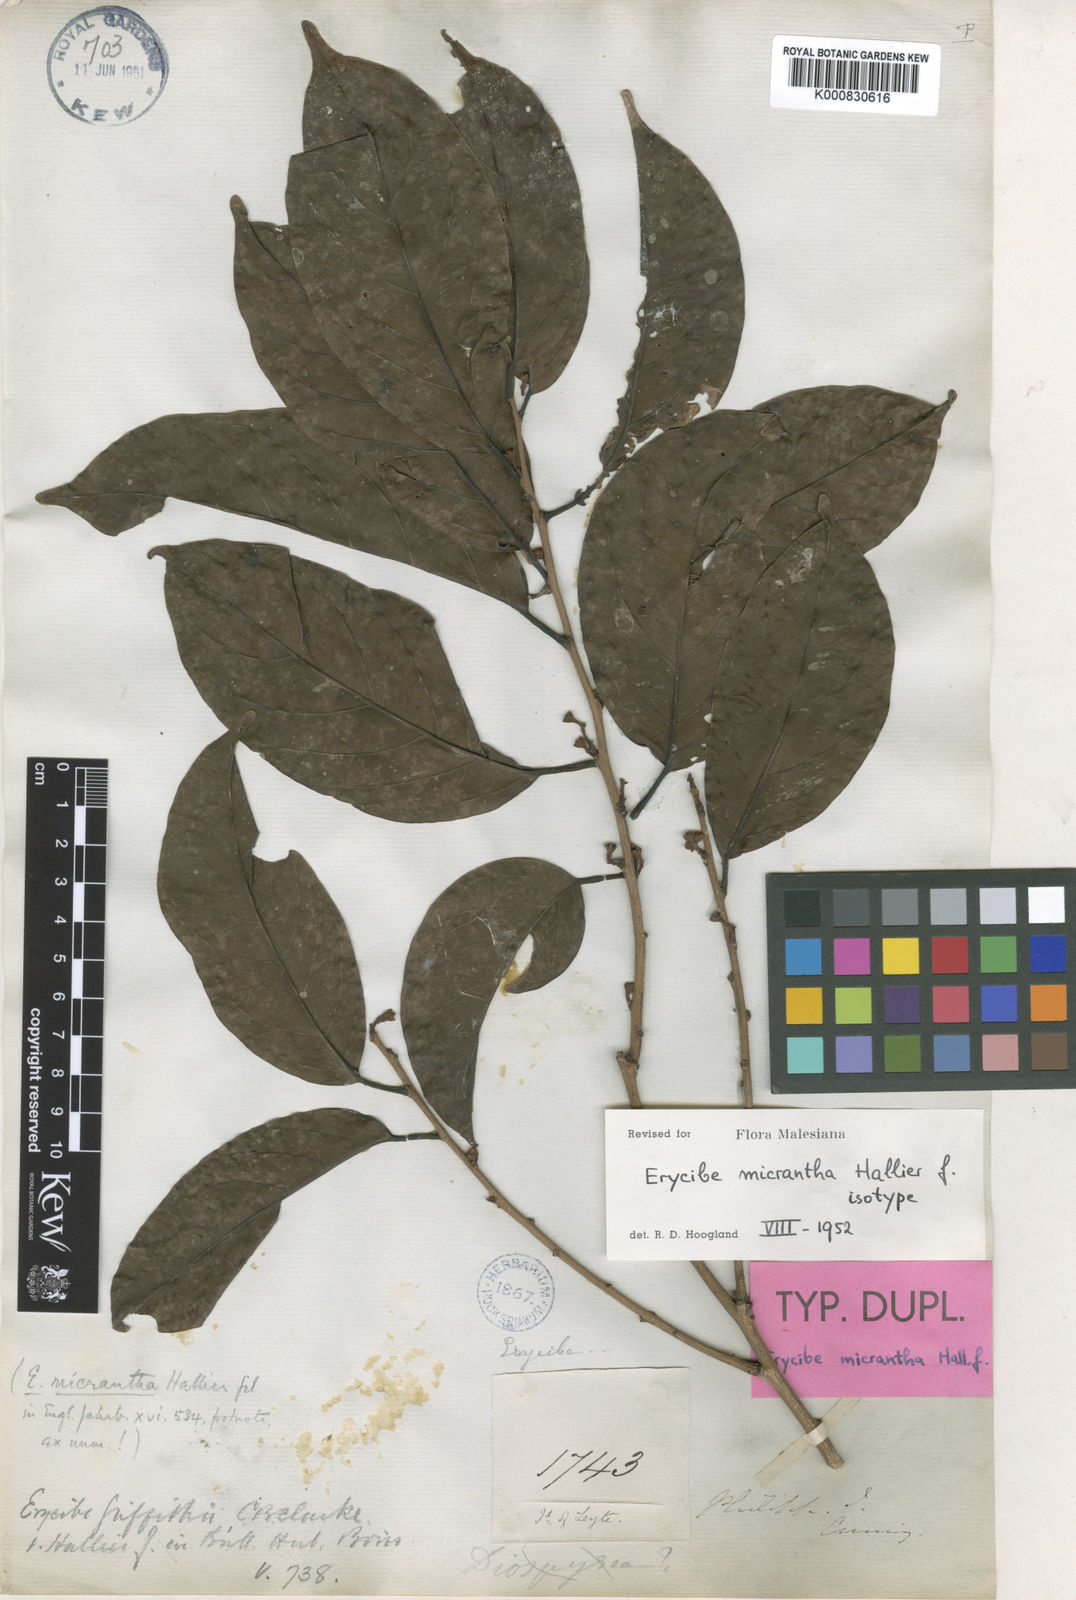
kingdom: Plantae
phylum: Tracheophyta
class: Magnoliopsida
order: Solanales
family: Convolvulaceae
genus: Erycibe
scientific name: Erycibe micrantha
